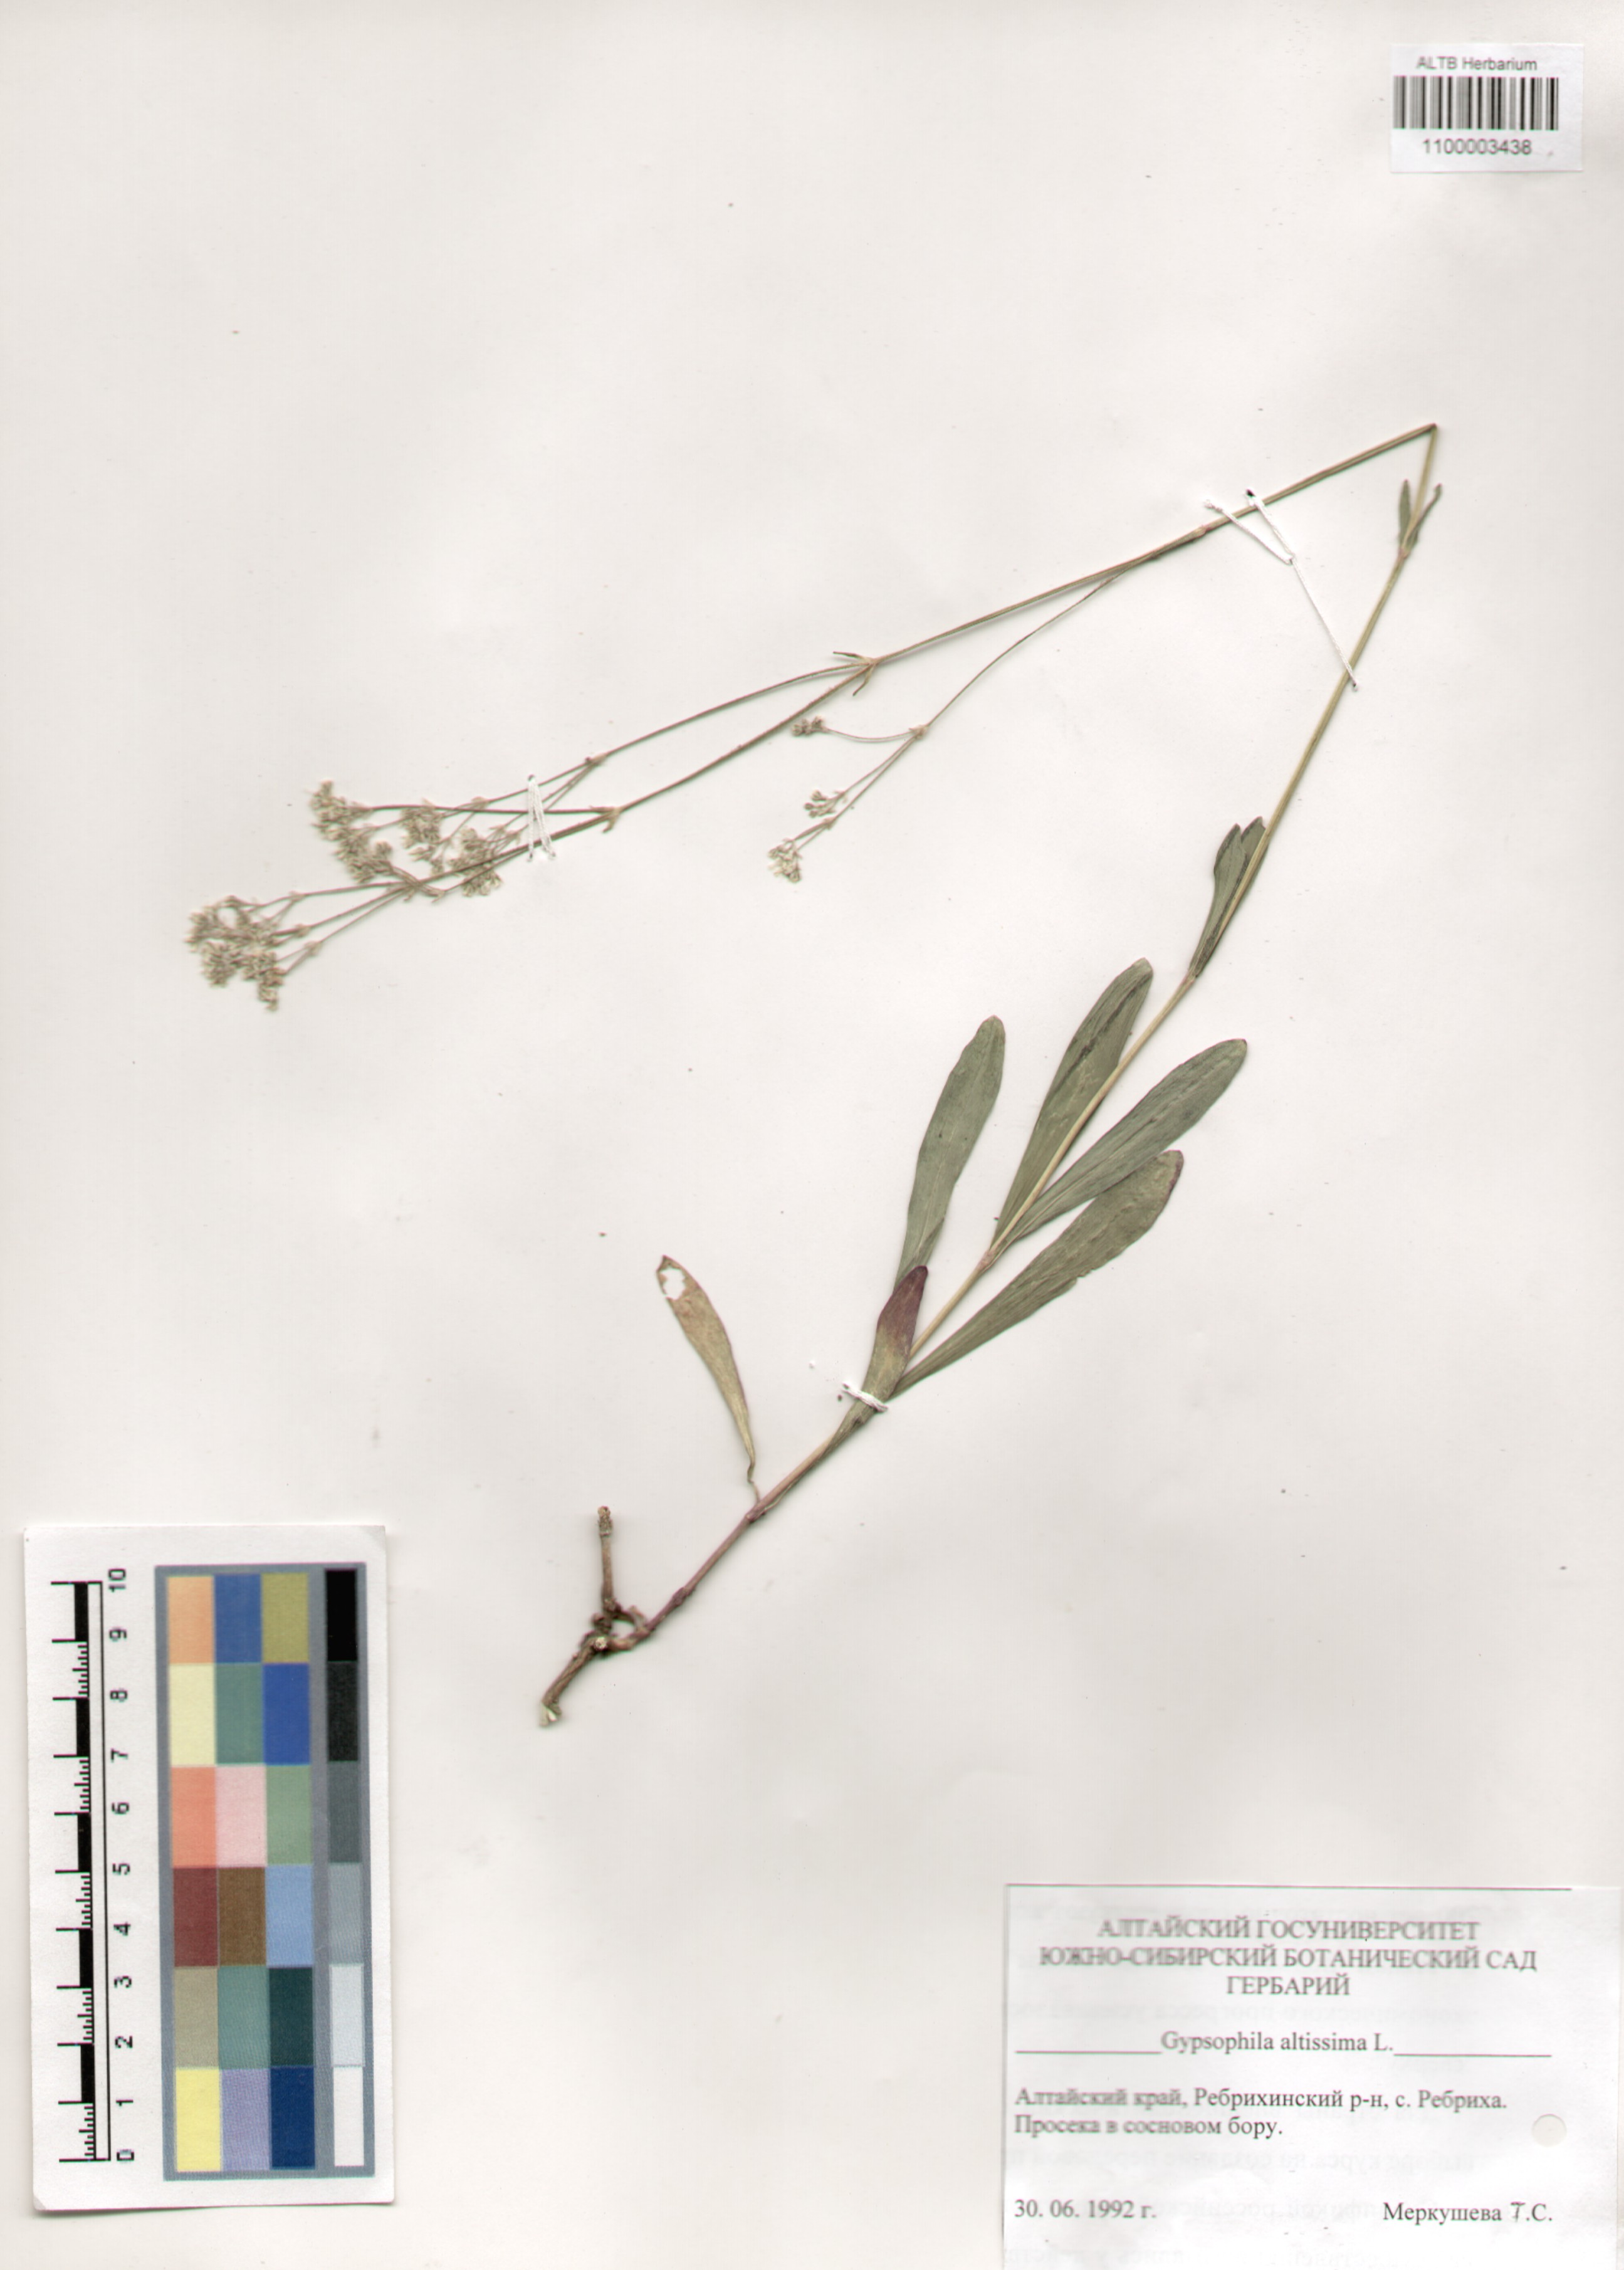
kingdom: Plantae
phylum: Tracheophyta
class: Magnoliopsida
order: Caryophyllales
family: Caryophyllaceae
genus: Gypsophila
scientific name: Gypsophila altissima
